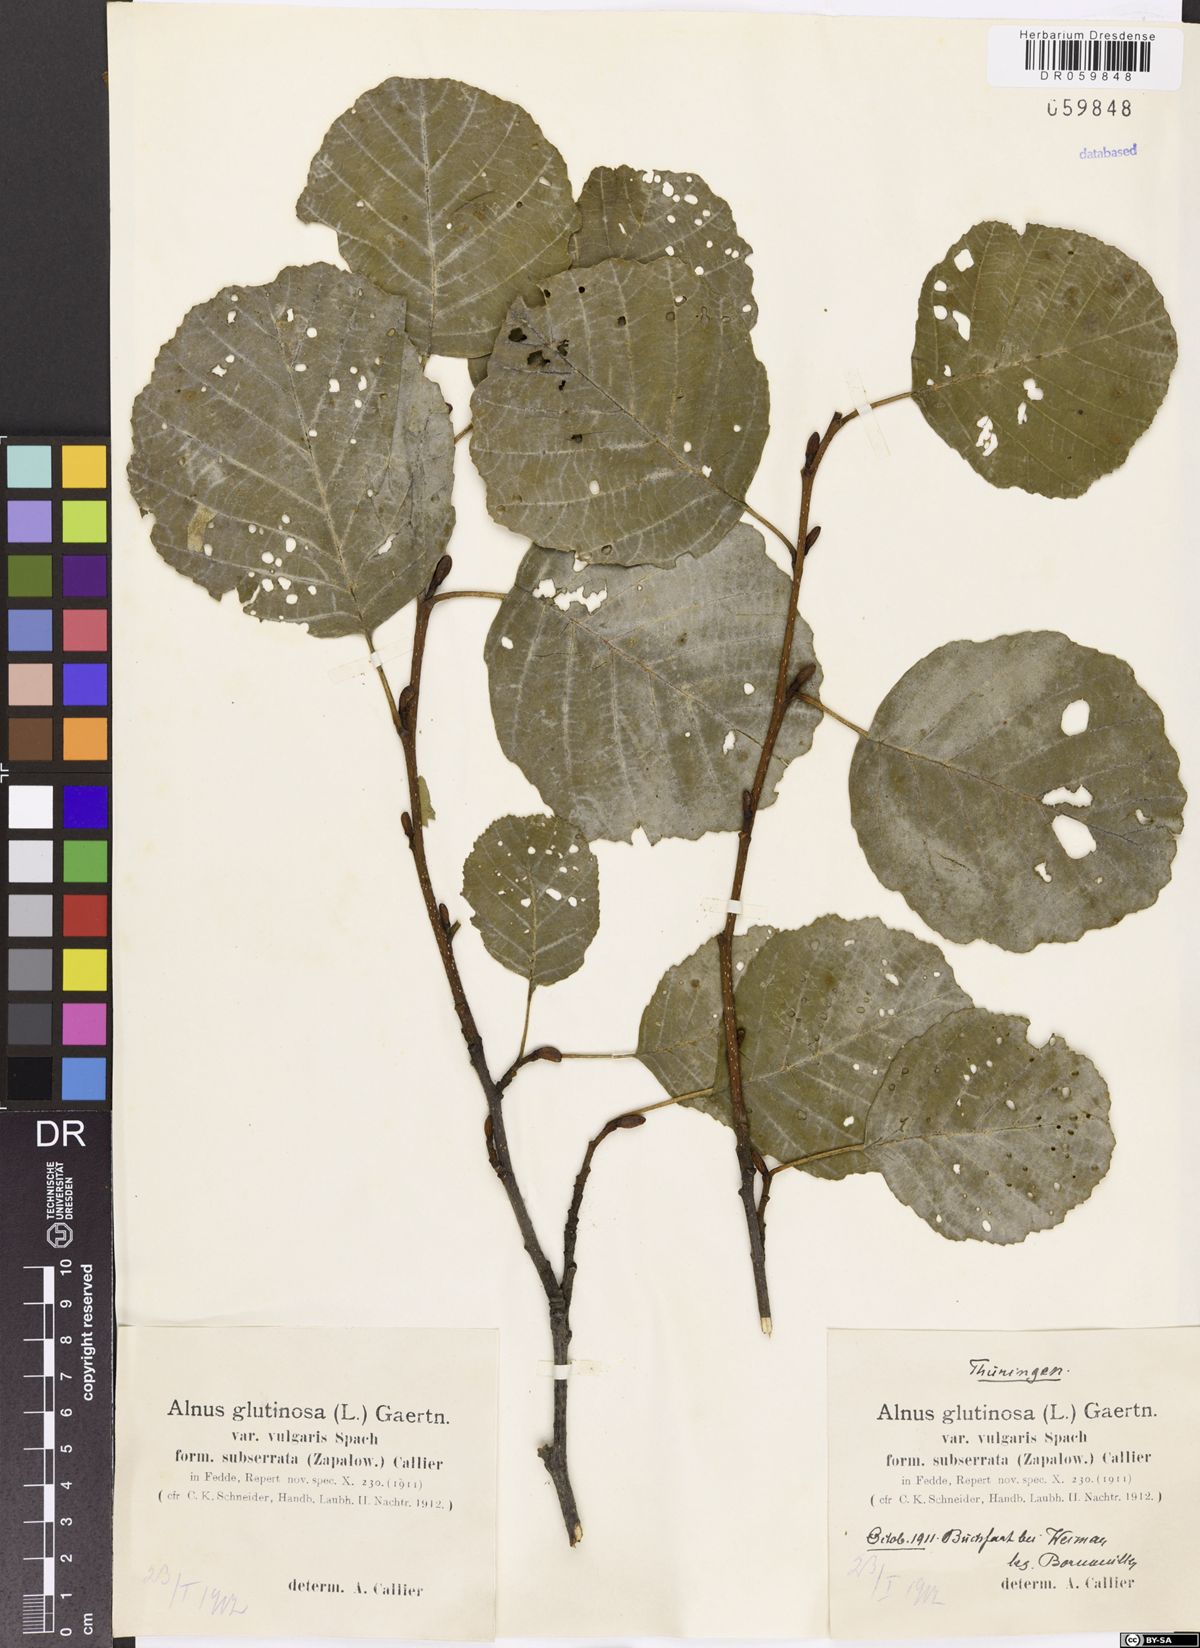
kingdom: Plantae
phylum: Tracheophyta
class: Magnoliopsida
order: Fagales
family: Betulaceae
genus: Alnus
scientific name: Alnus glutinosa
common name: Black alder
